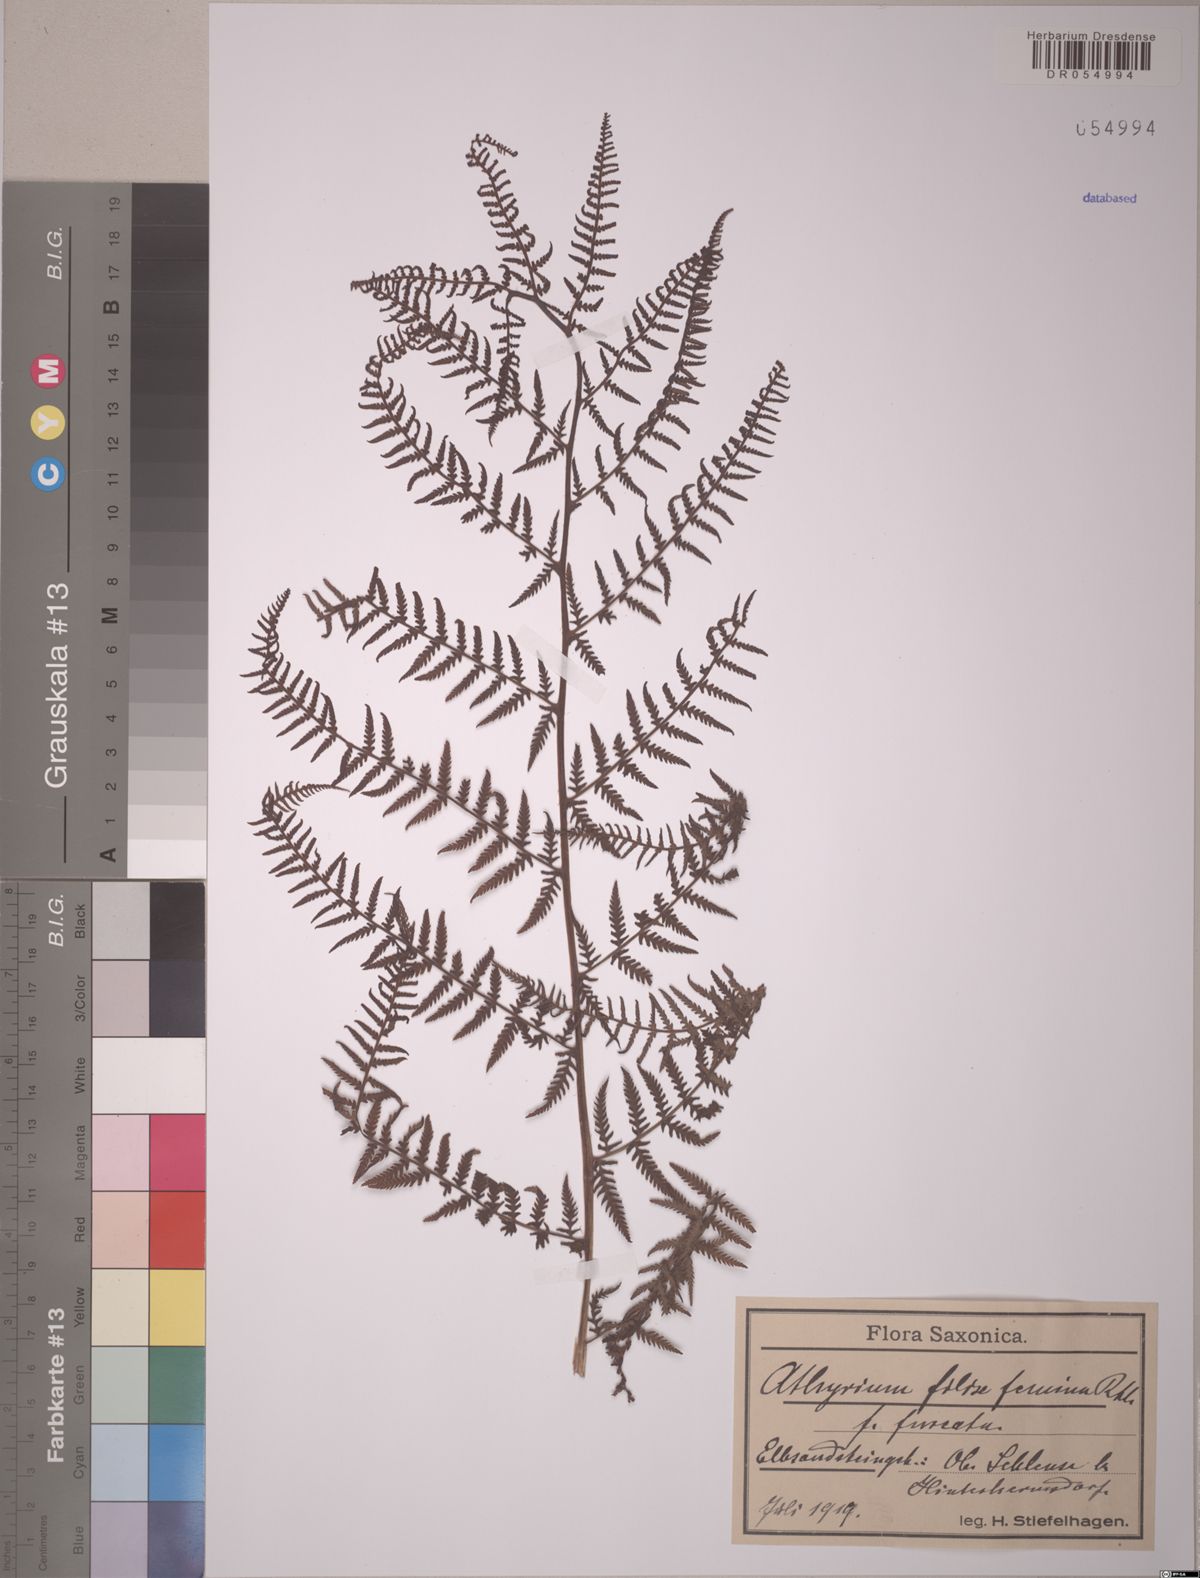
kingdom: Plantae
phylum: Tracheophyta
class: Polypodiopsida
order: Polypodiales
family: Athyriaceae
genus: Athyrium
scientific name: Athyrium filix-femina
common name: Lady fern
